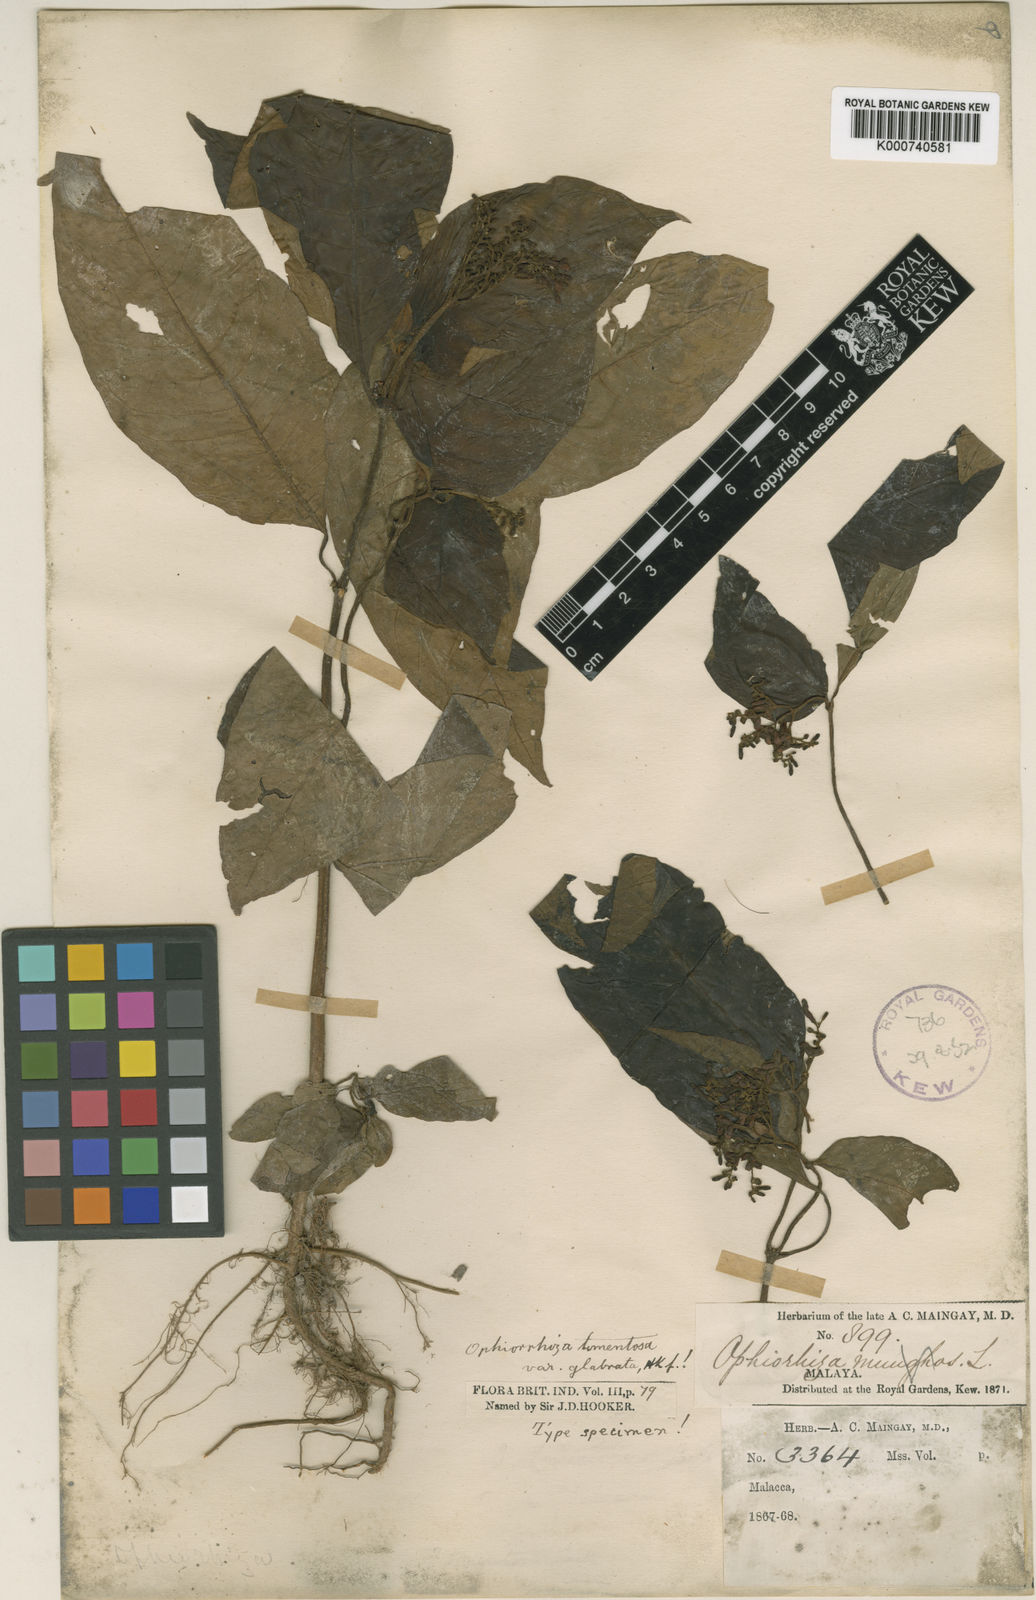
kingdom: Plantae
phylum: Tracheophyta
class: Magnoliopsida
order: Gentianales
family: Rubiaceae
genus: Ophiorrhiza
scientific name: Ophiorrhiza tomentosa
